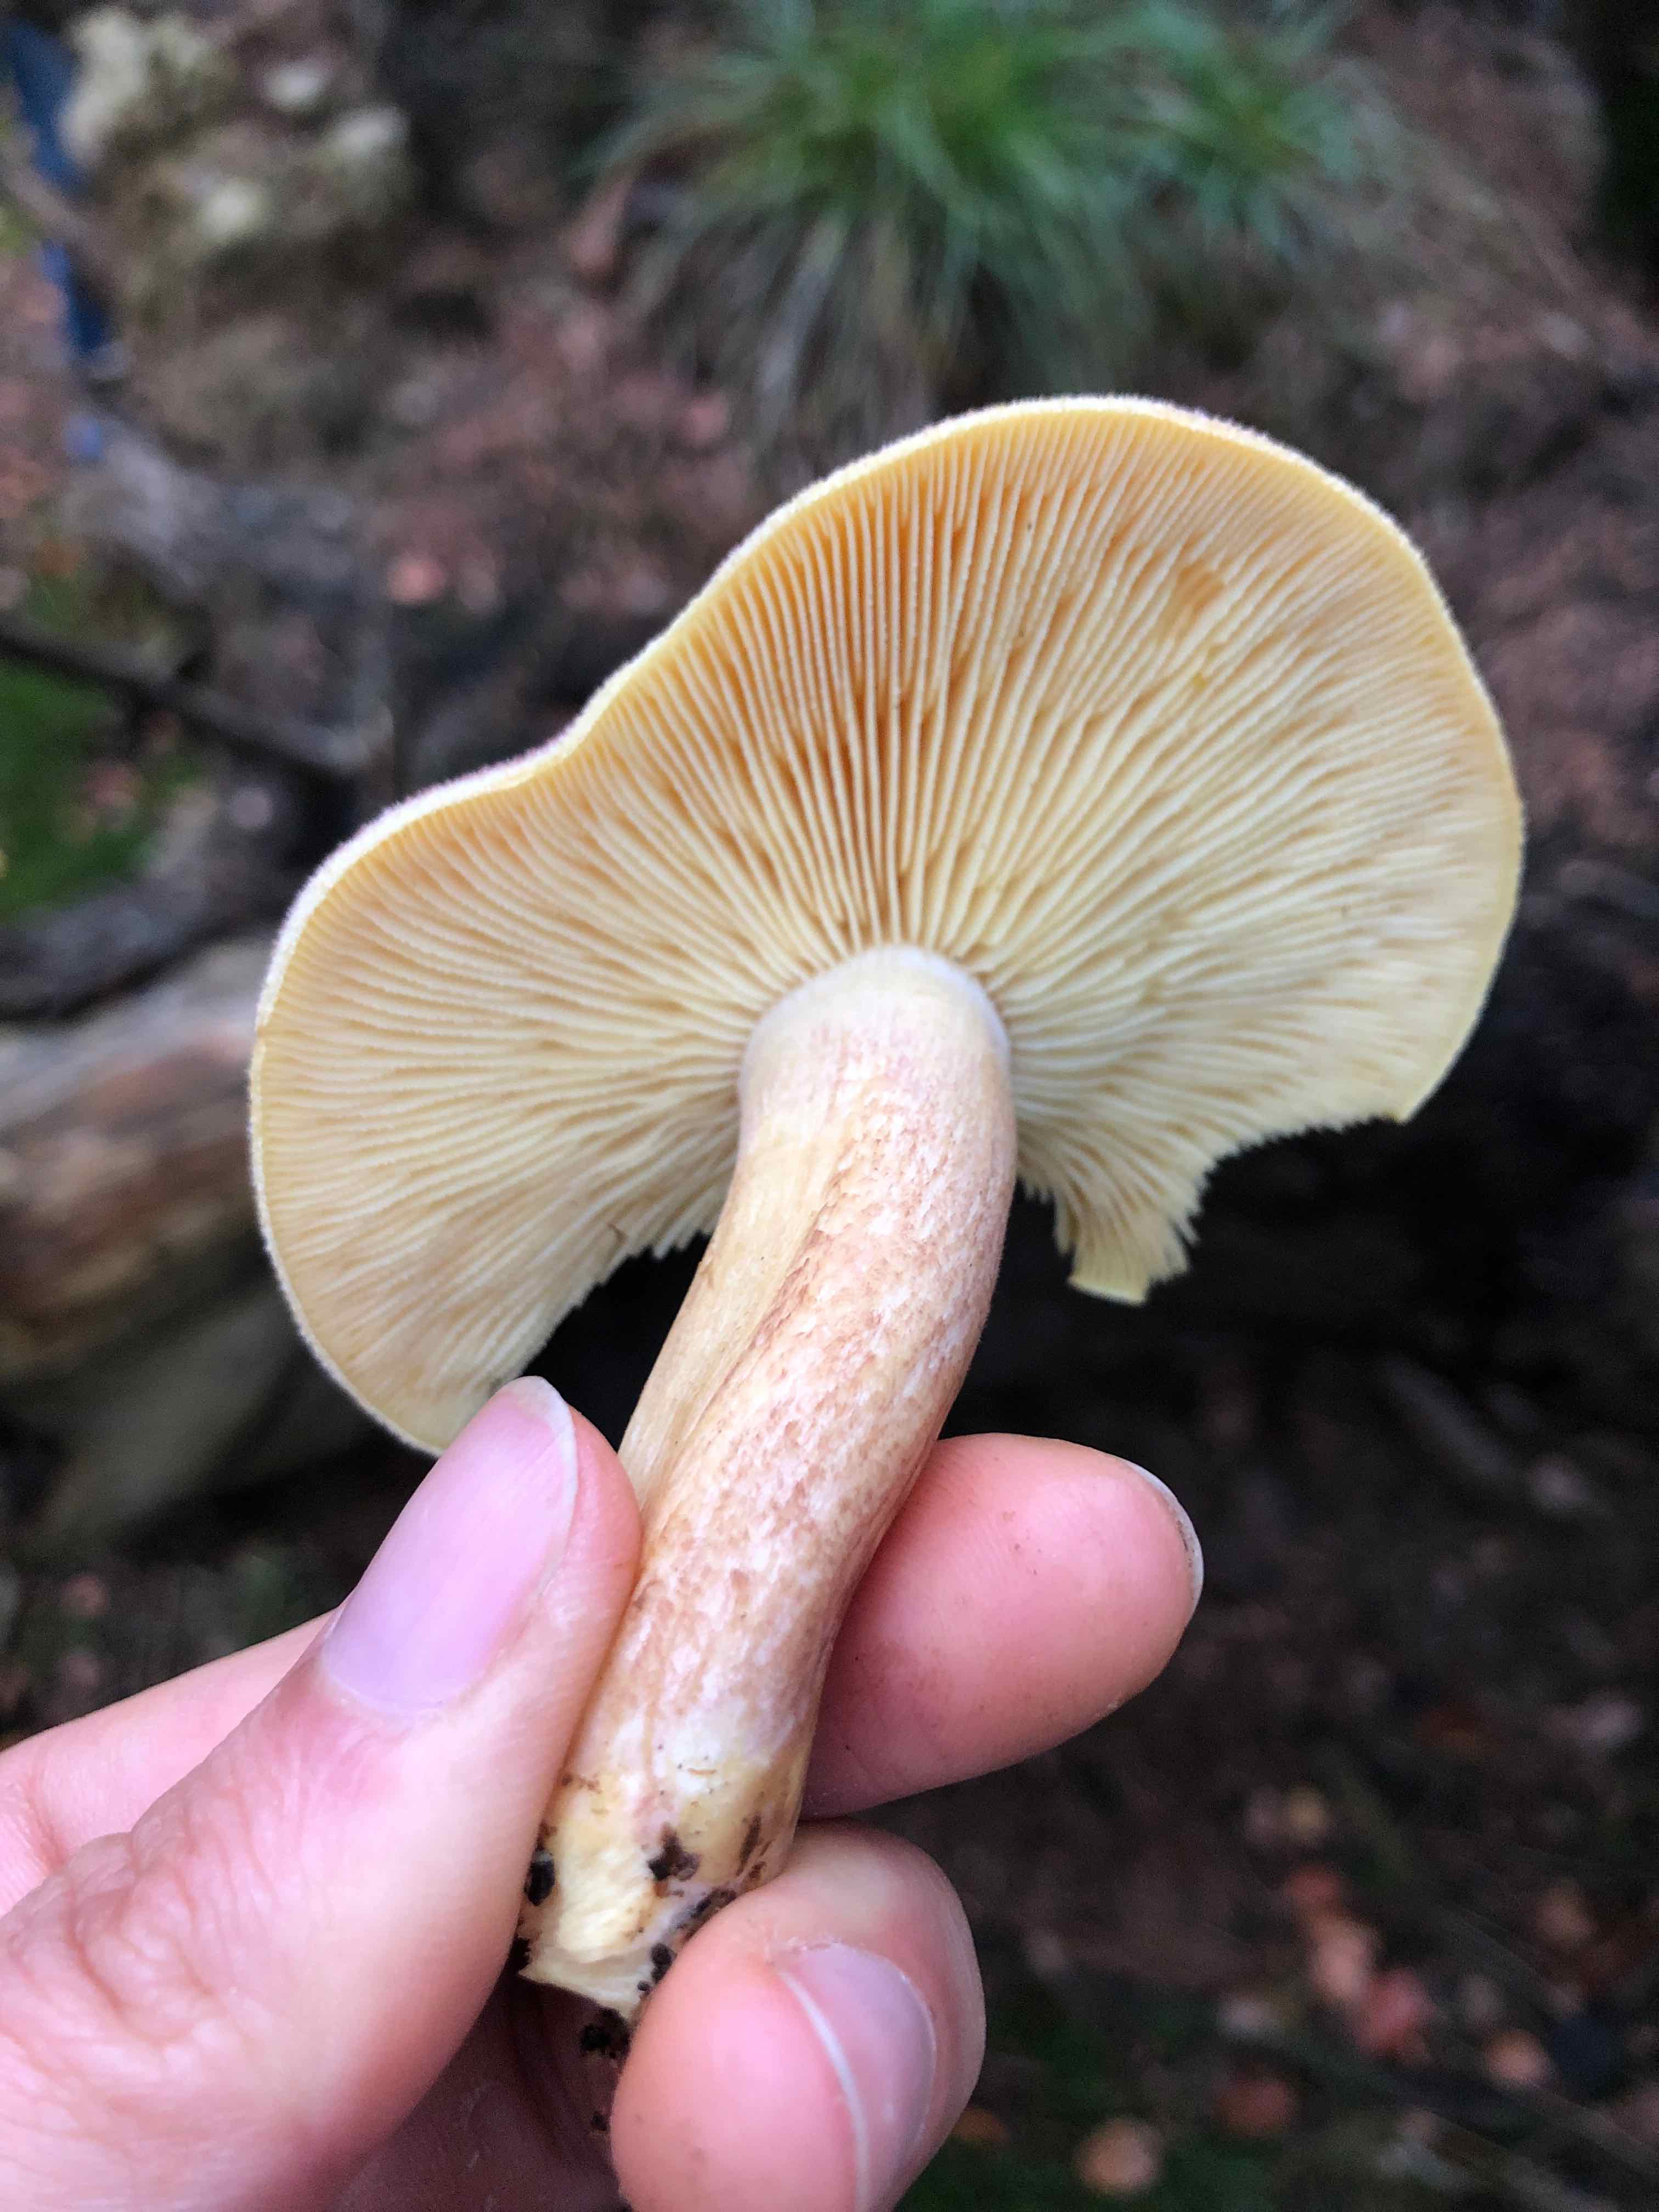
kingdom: Fungi
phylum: Basidiomycota
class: Agaricomycetes
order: Agaricales
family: Tricholomataceae
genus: Tricholomopsis
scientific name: Tricholomopsis rutilans
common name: purpur-væbnerhat
